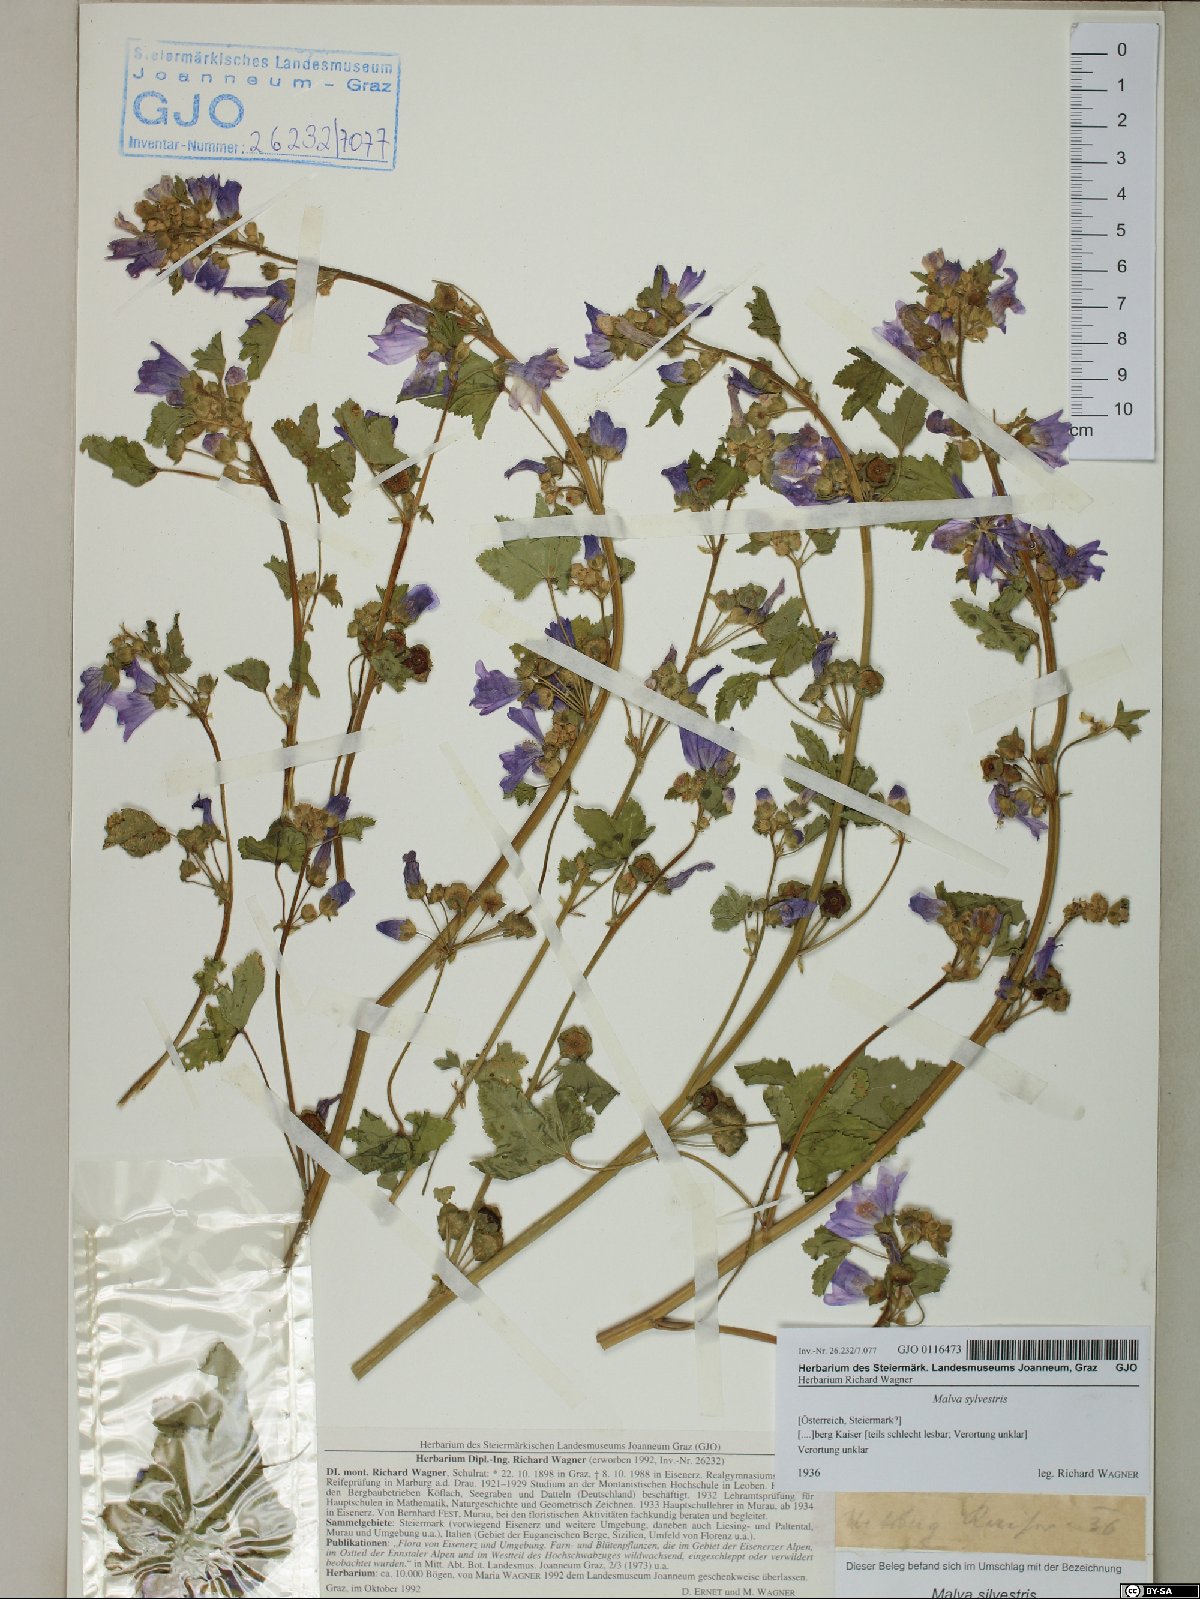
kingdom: Plantae
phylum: Tracheophyta
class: Magnoliopsida
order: Malvales
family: Malvaceae
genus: Malva
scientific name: Malva sylvestris
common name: Common mallow
